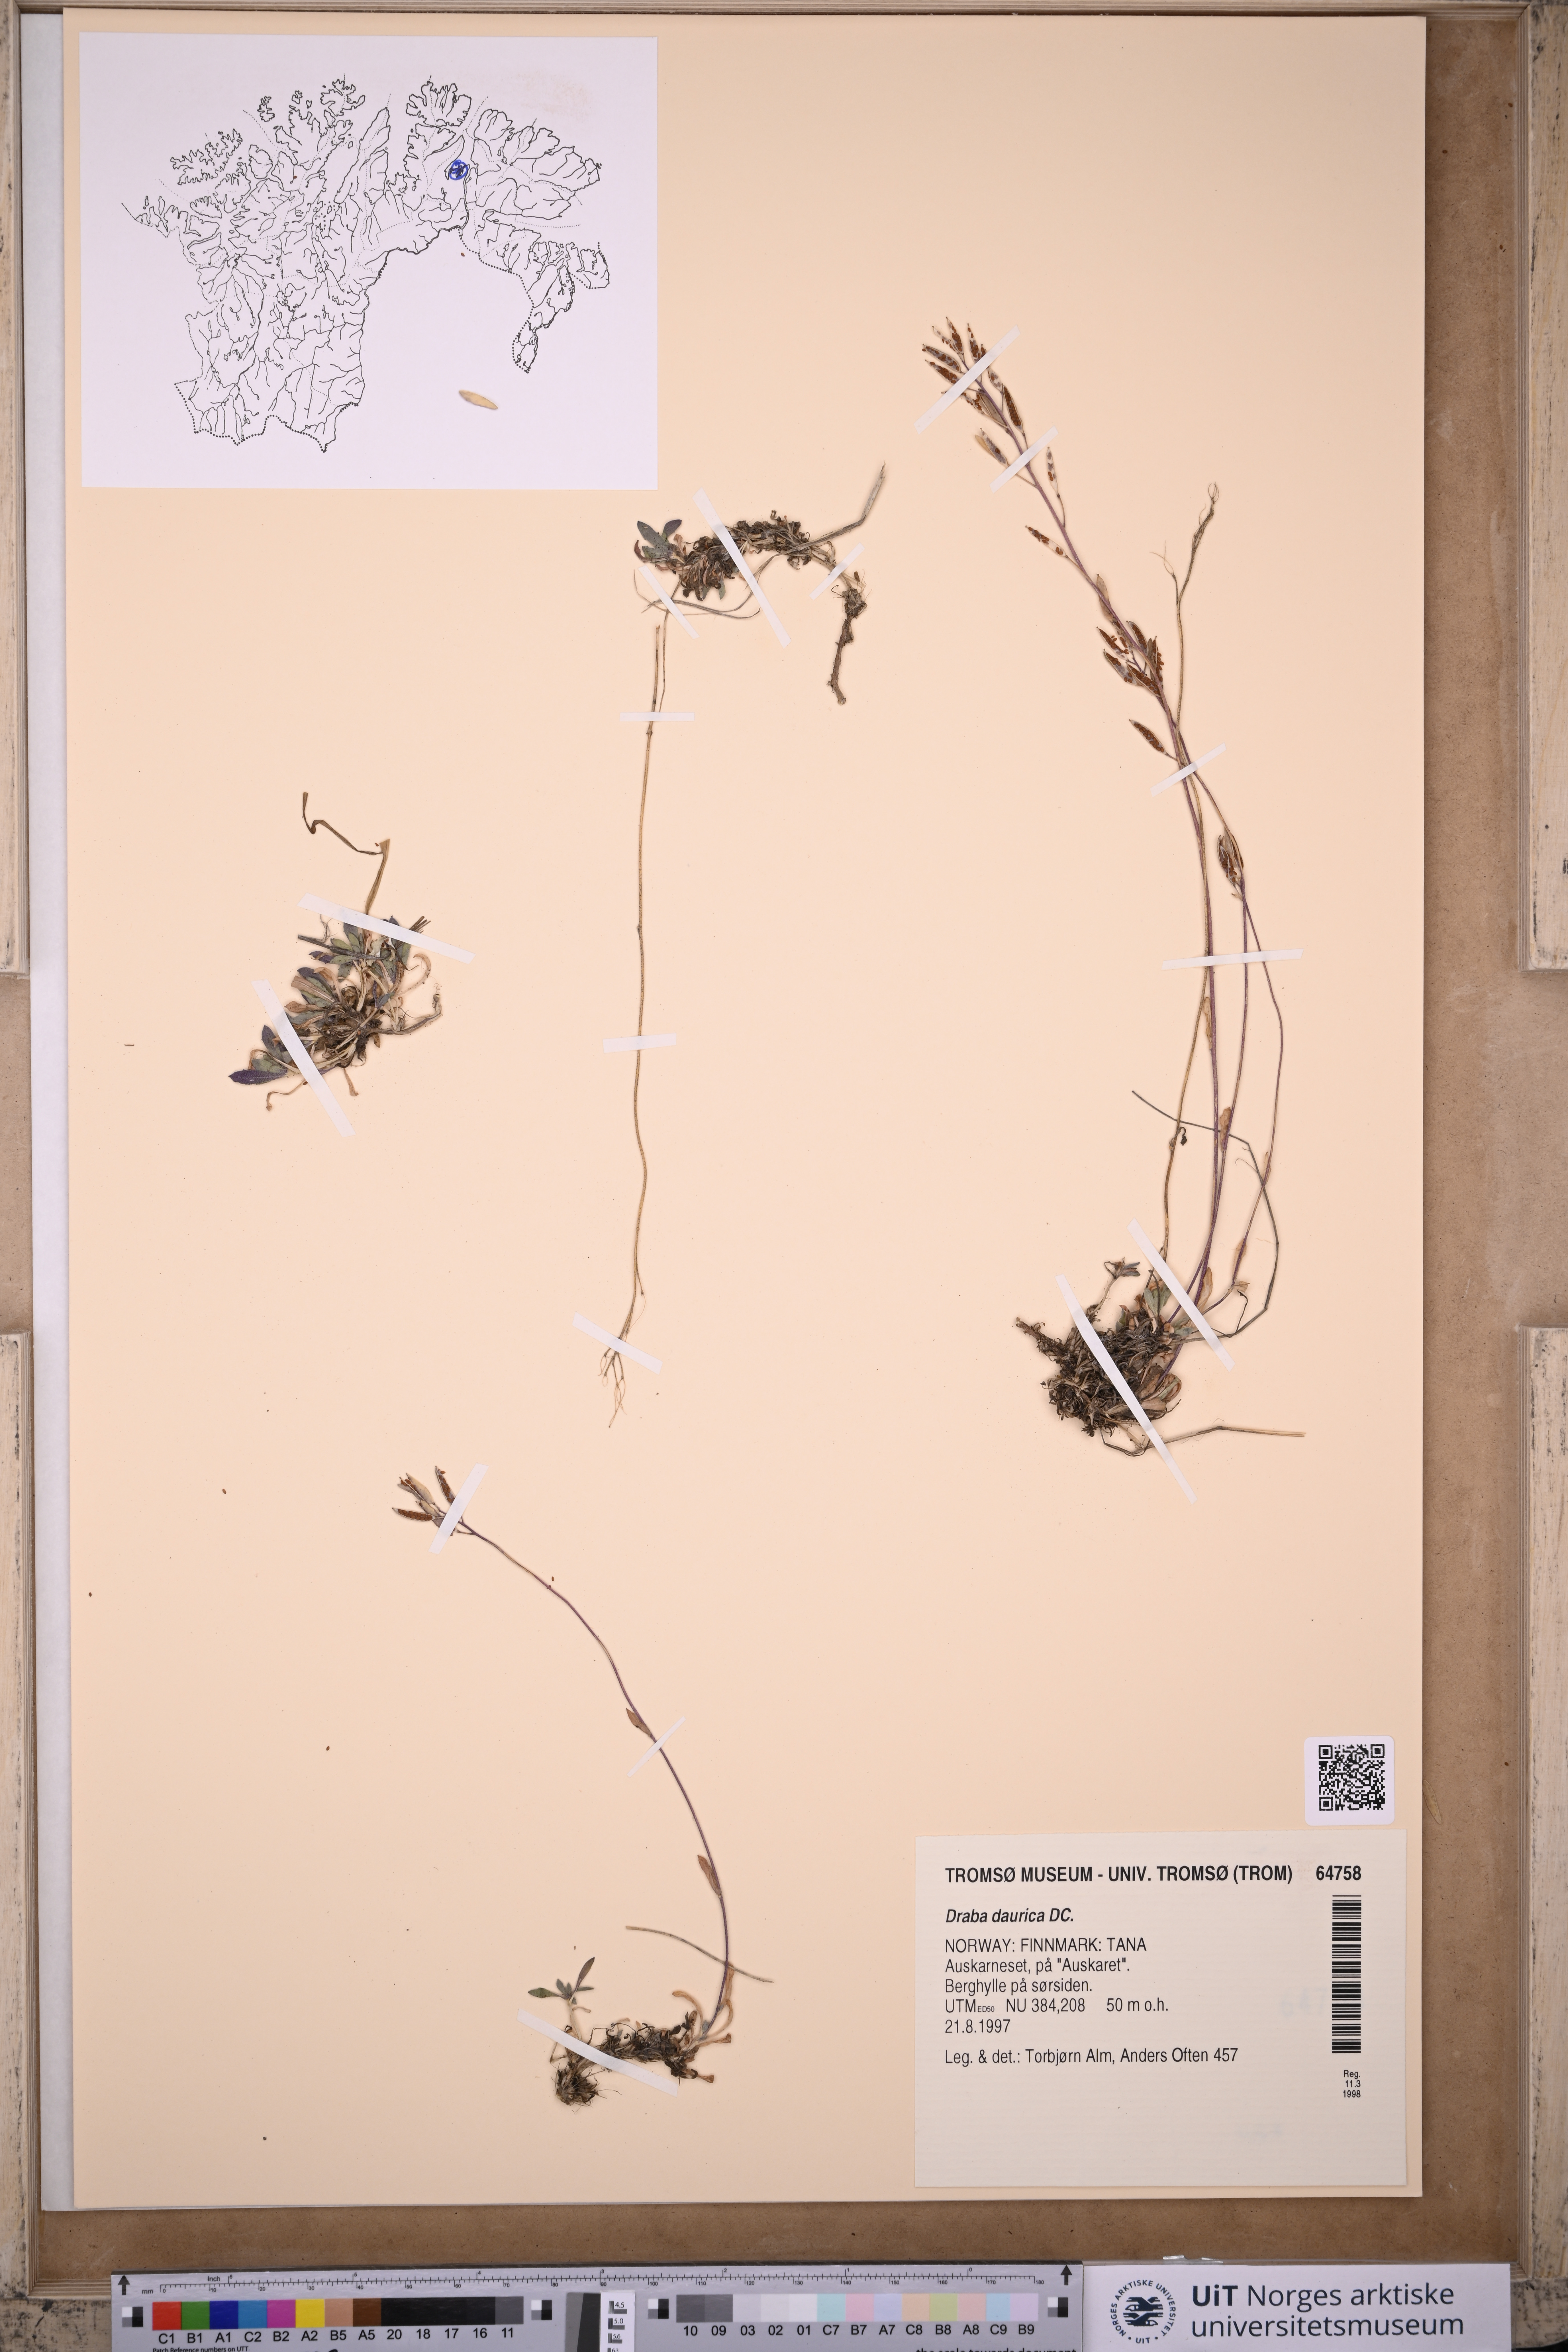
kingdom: Plantae
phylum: Tracheophyta
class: Magnoliopsida
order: Brassicales
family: Brassicaceae
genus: Draba
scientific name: Draba glabella
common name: Glaucous draba
